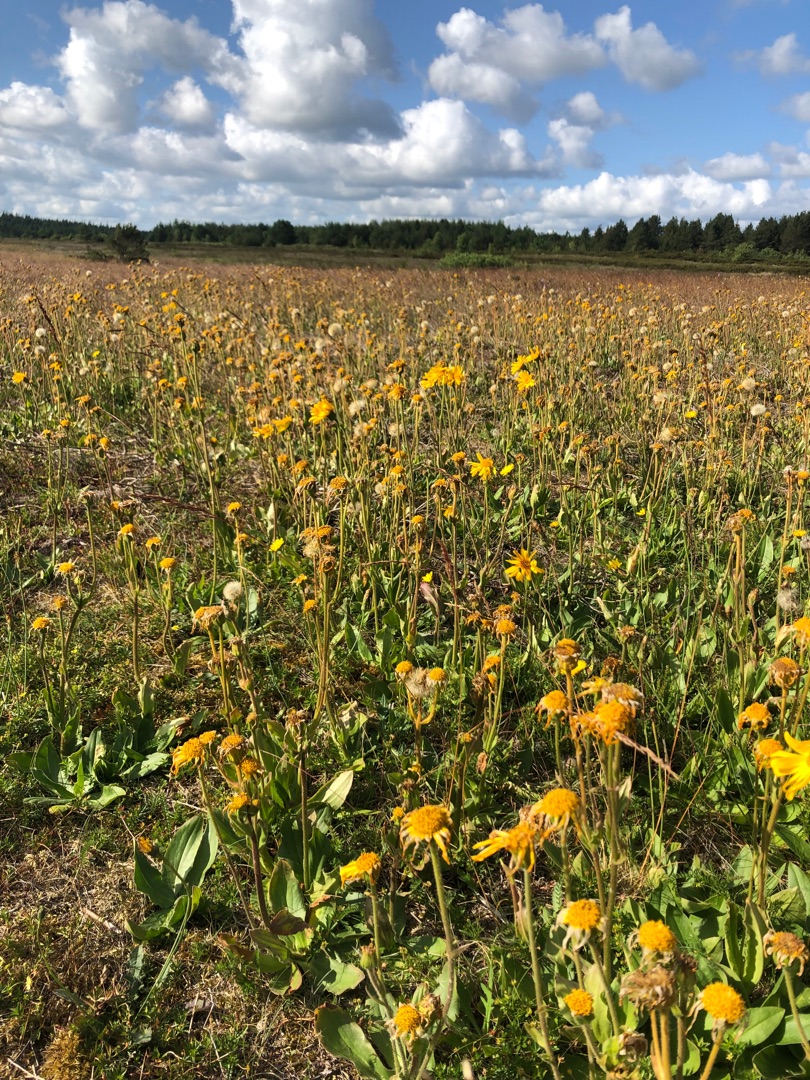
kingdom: Plantae
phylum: Tracheophyta
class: Magnoliopsida
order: Asterales
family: Asteraceae
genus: Arnica
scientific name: Arnica montana
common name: Guldblomme
